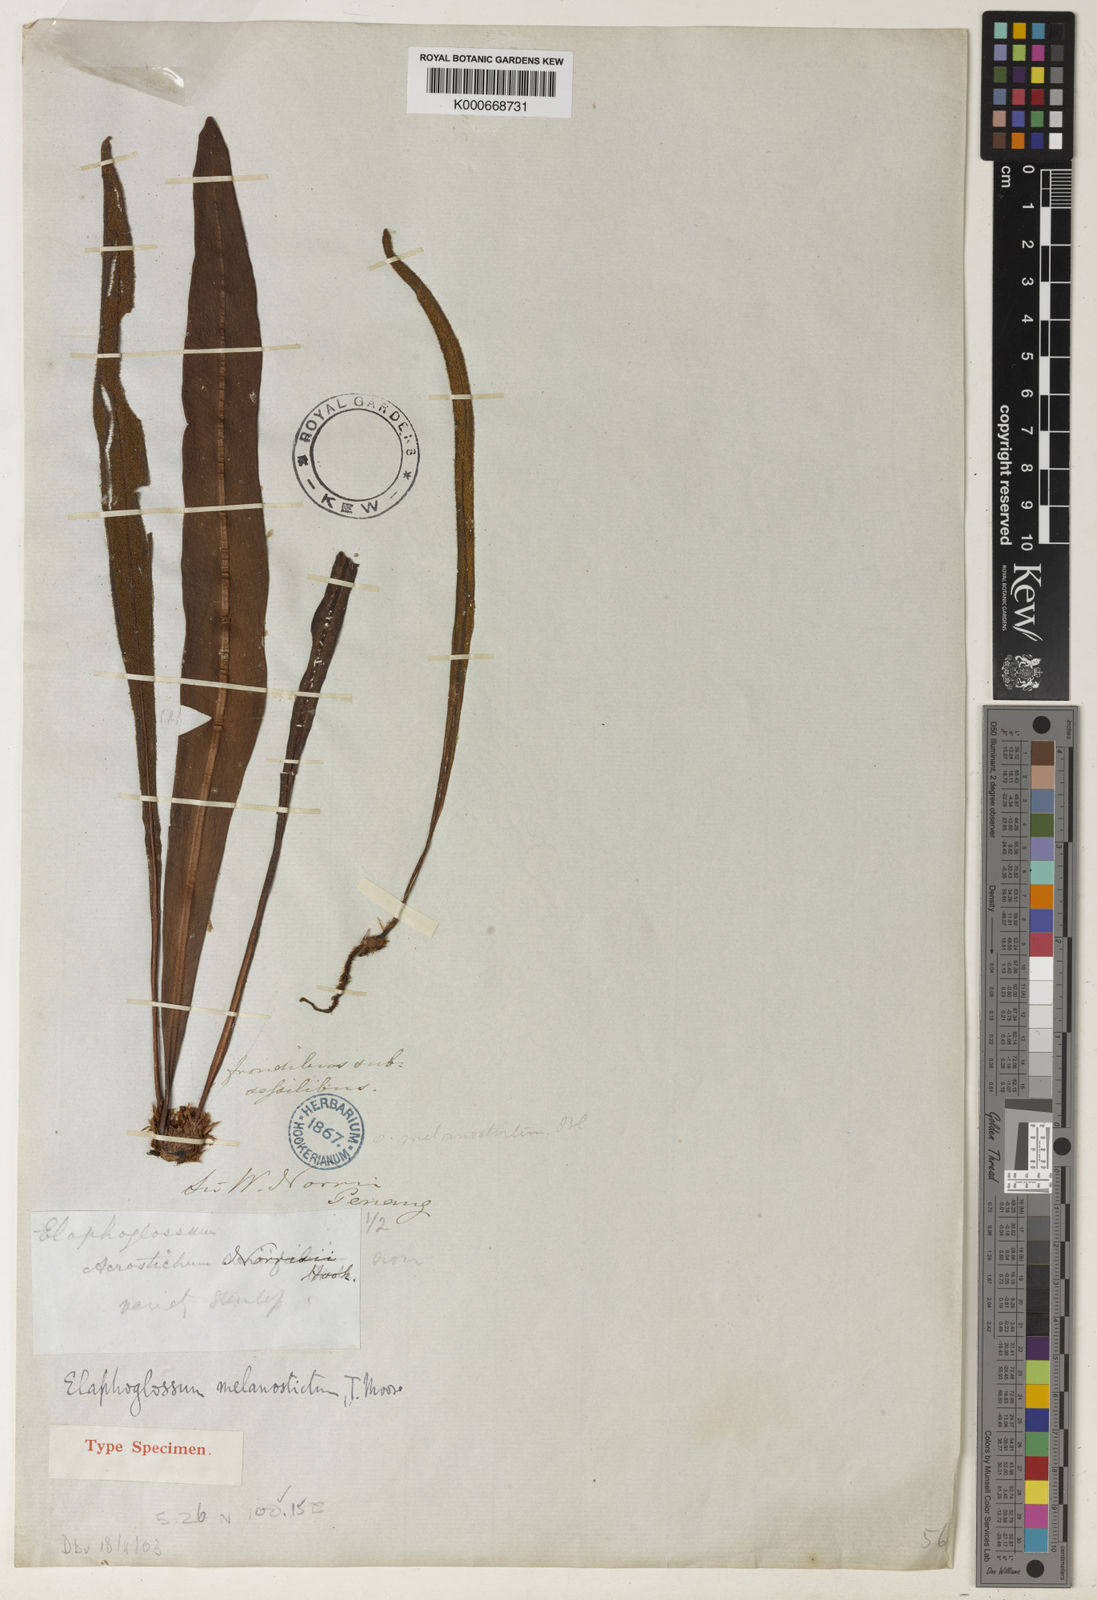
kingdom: Plantae
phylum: Tracheophyta
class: Polypodiopsida
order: Polypodiales
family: Dryopteridaceae
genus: Elaphoglossum
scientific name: Elaphoglossum melanostictum
